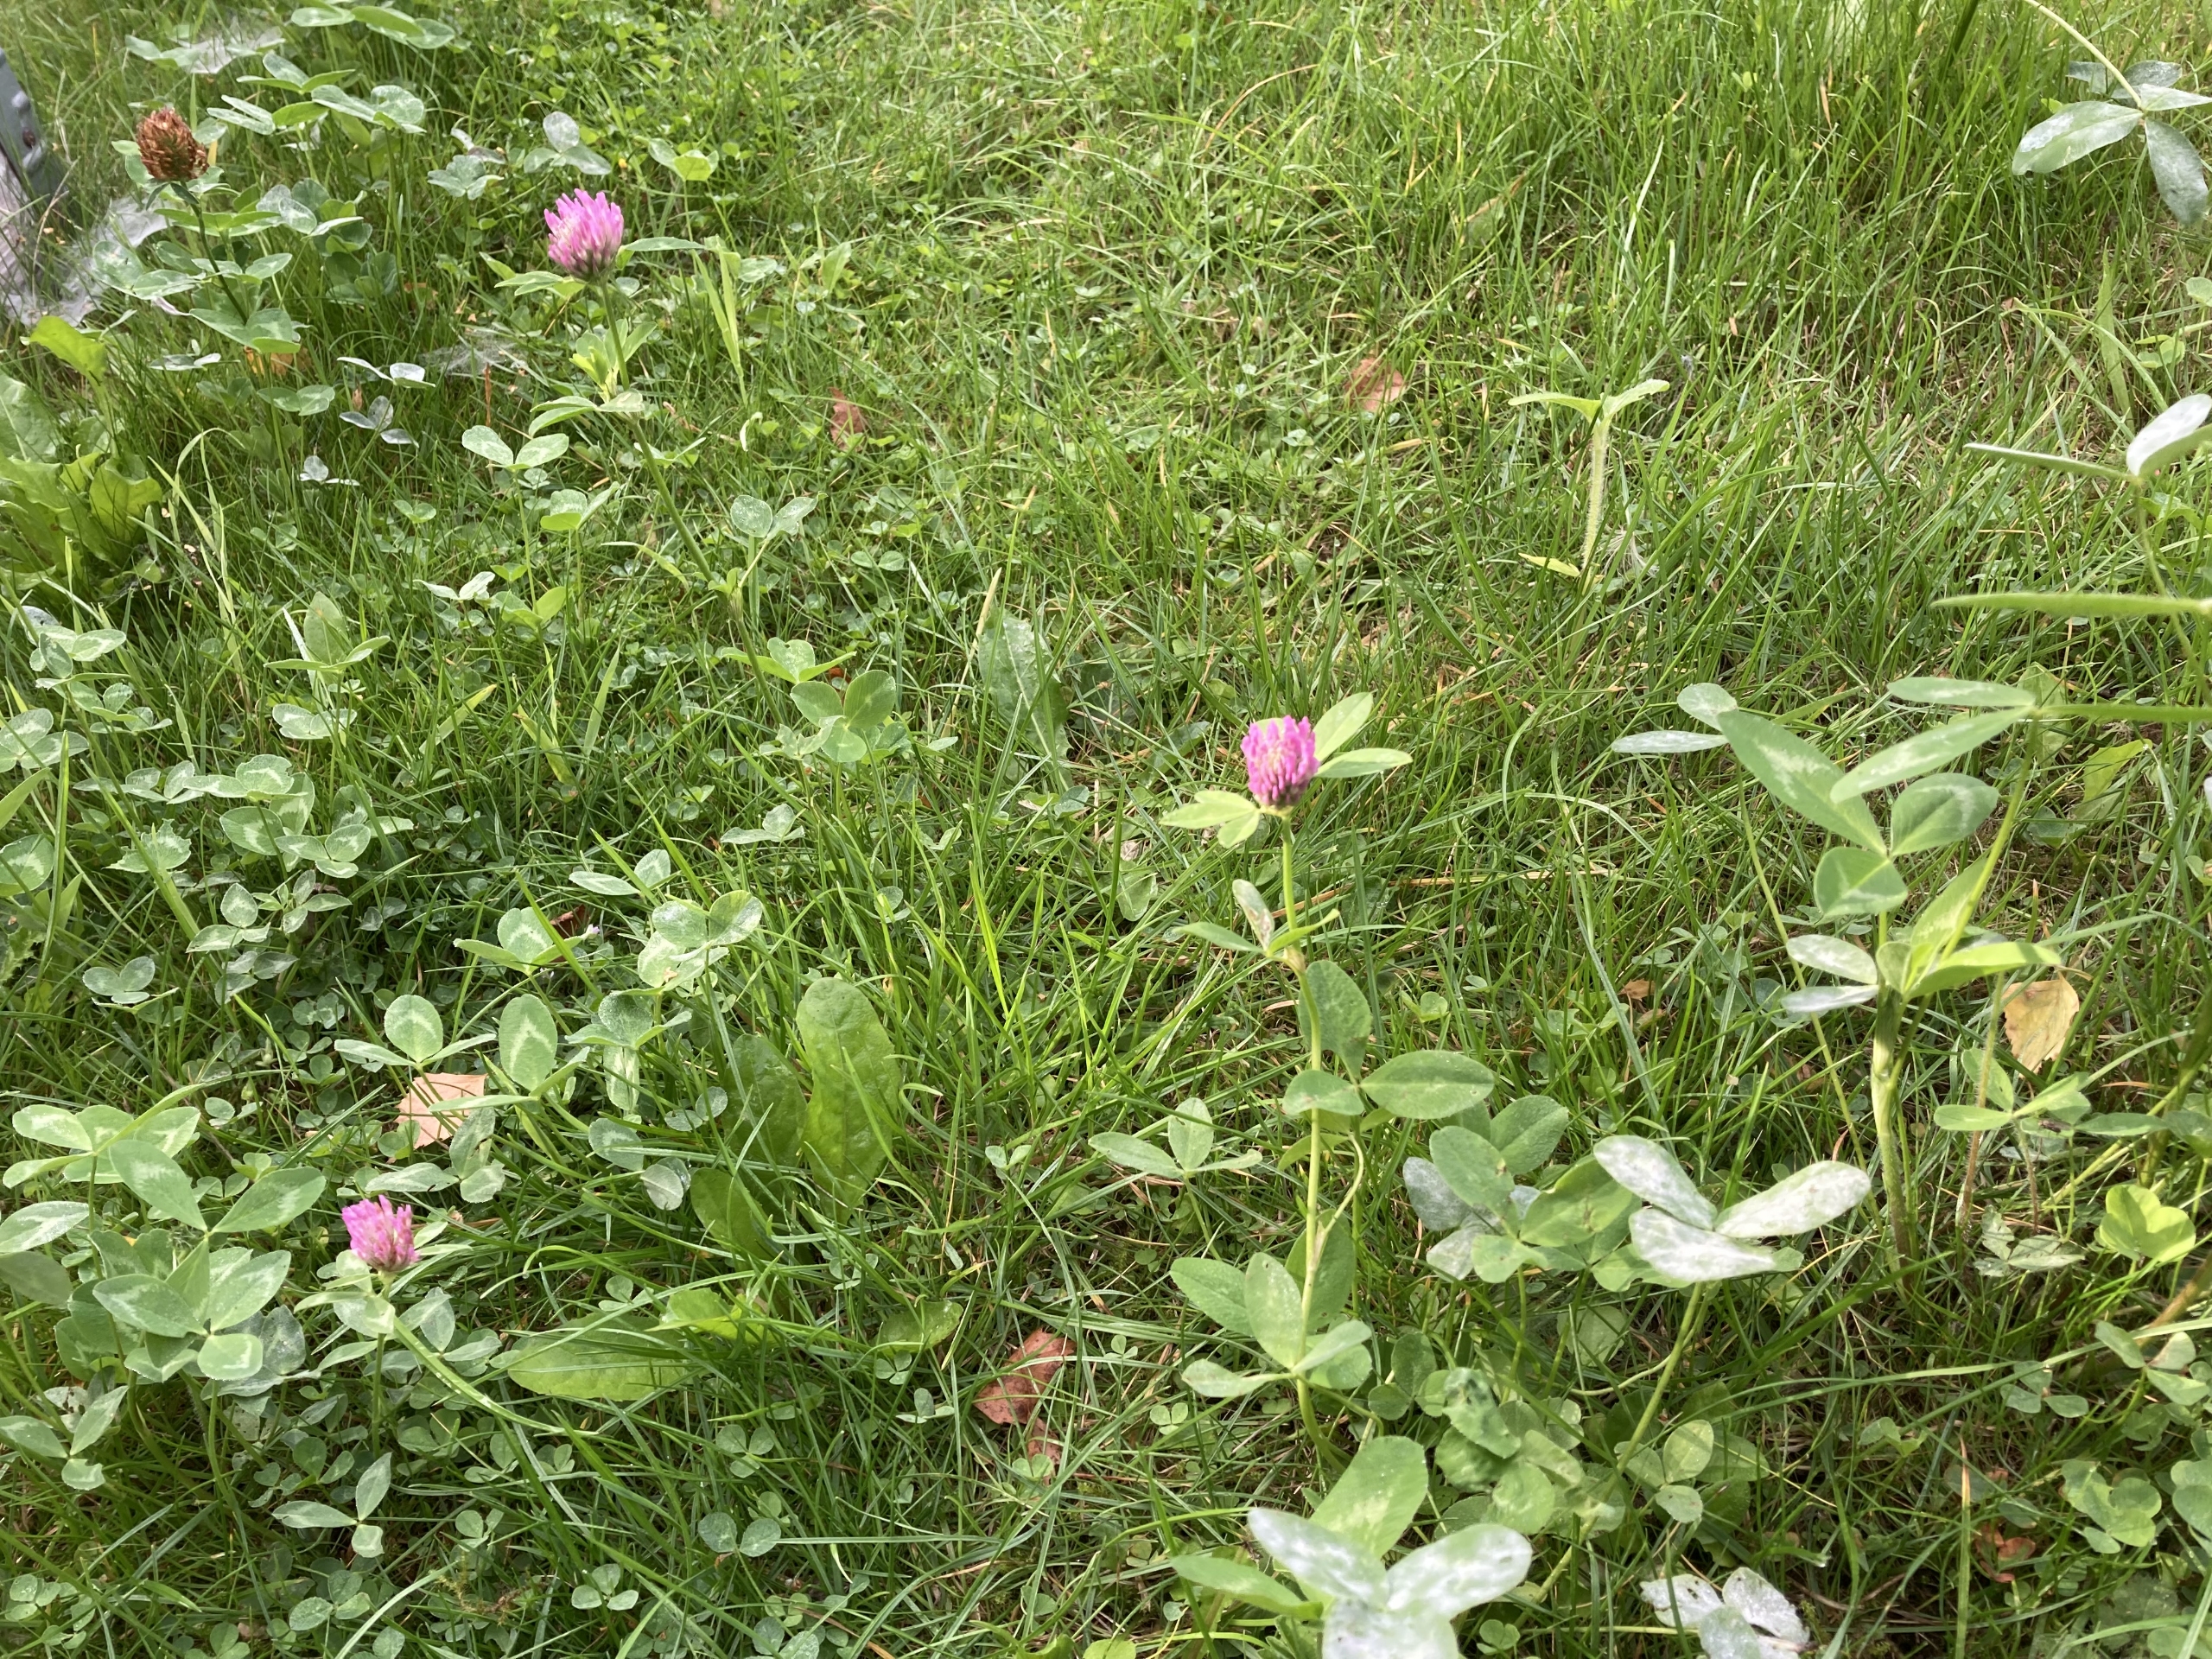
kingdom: Plantae
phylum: Tracheophyta
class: Magnoliopsida
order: Fabales
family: Fabaceae
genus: Trifolium
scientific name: Trifolium pratense
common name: Rød-kløver
